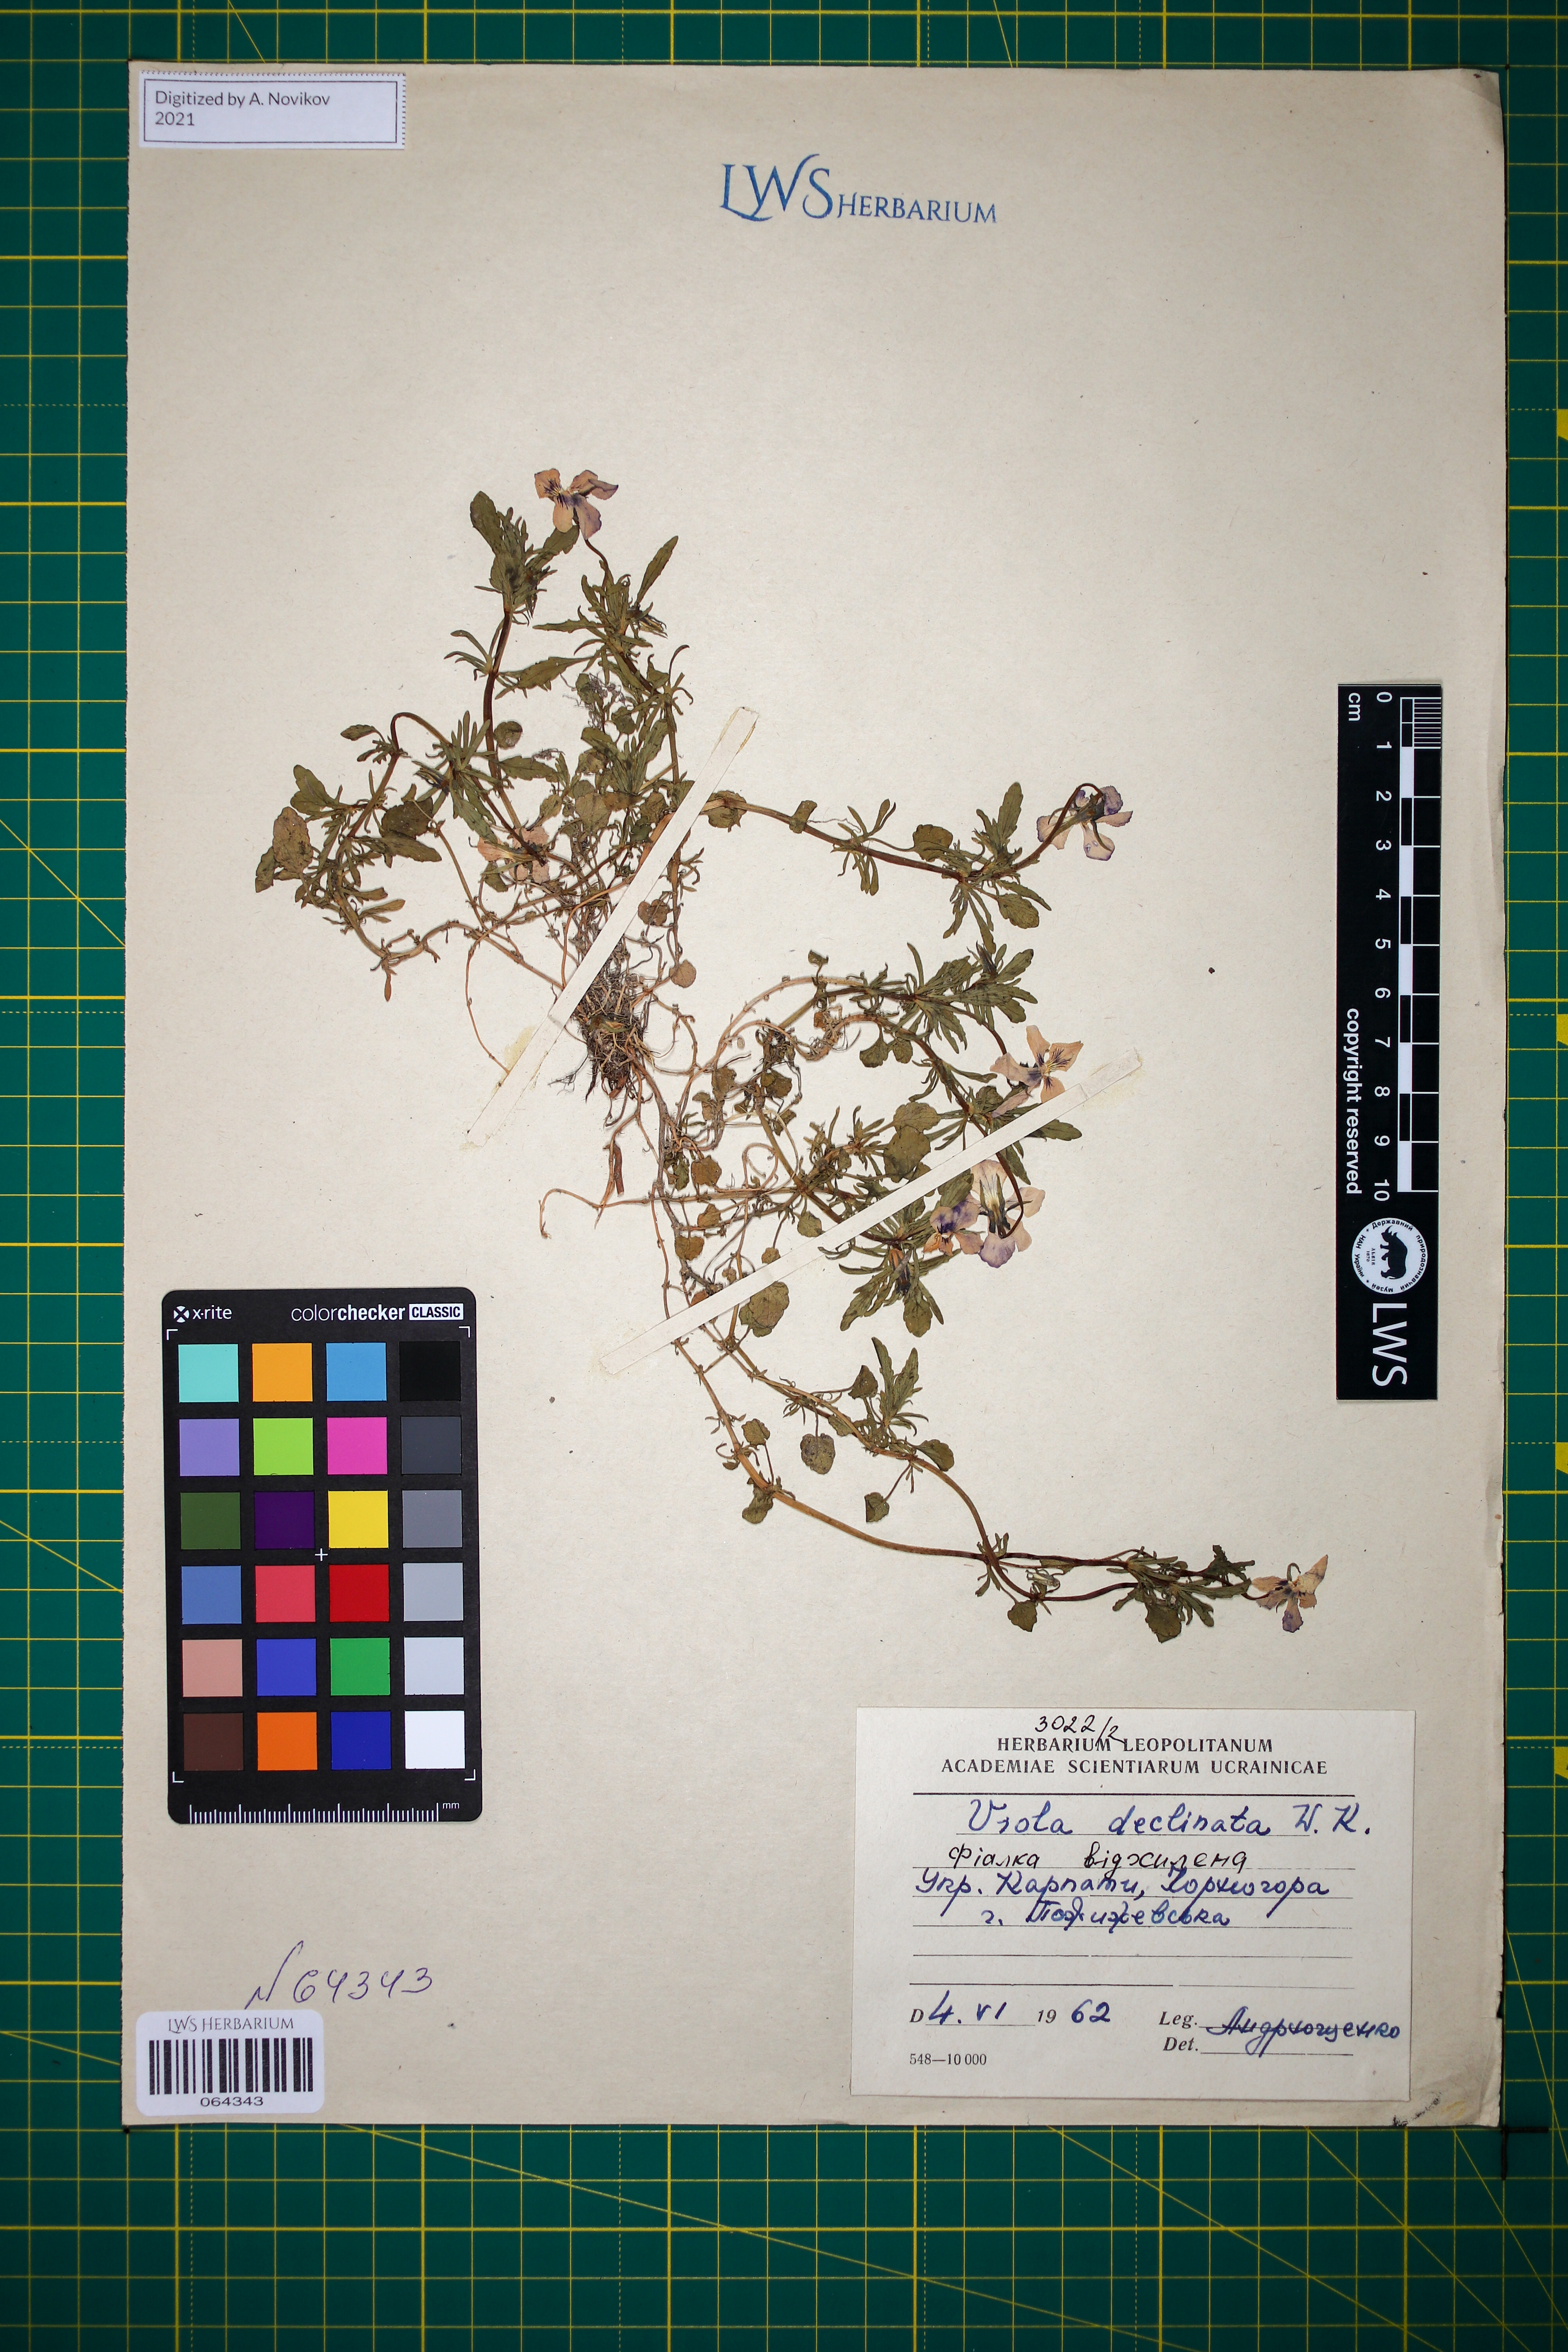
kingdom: Plantae
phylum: Tracheophyta
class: Magnoliopsida
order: Malpighiales
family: Violaceae
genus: Viola
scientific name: Viola declinata
